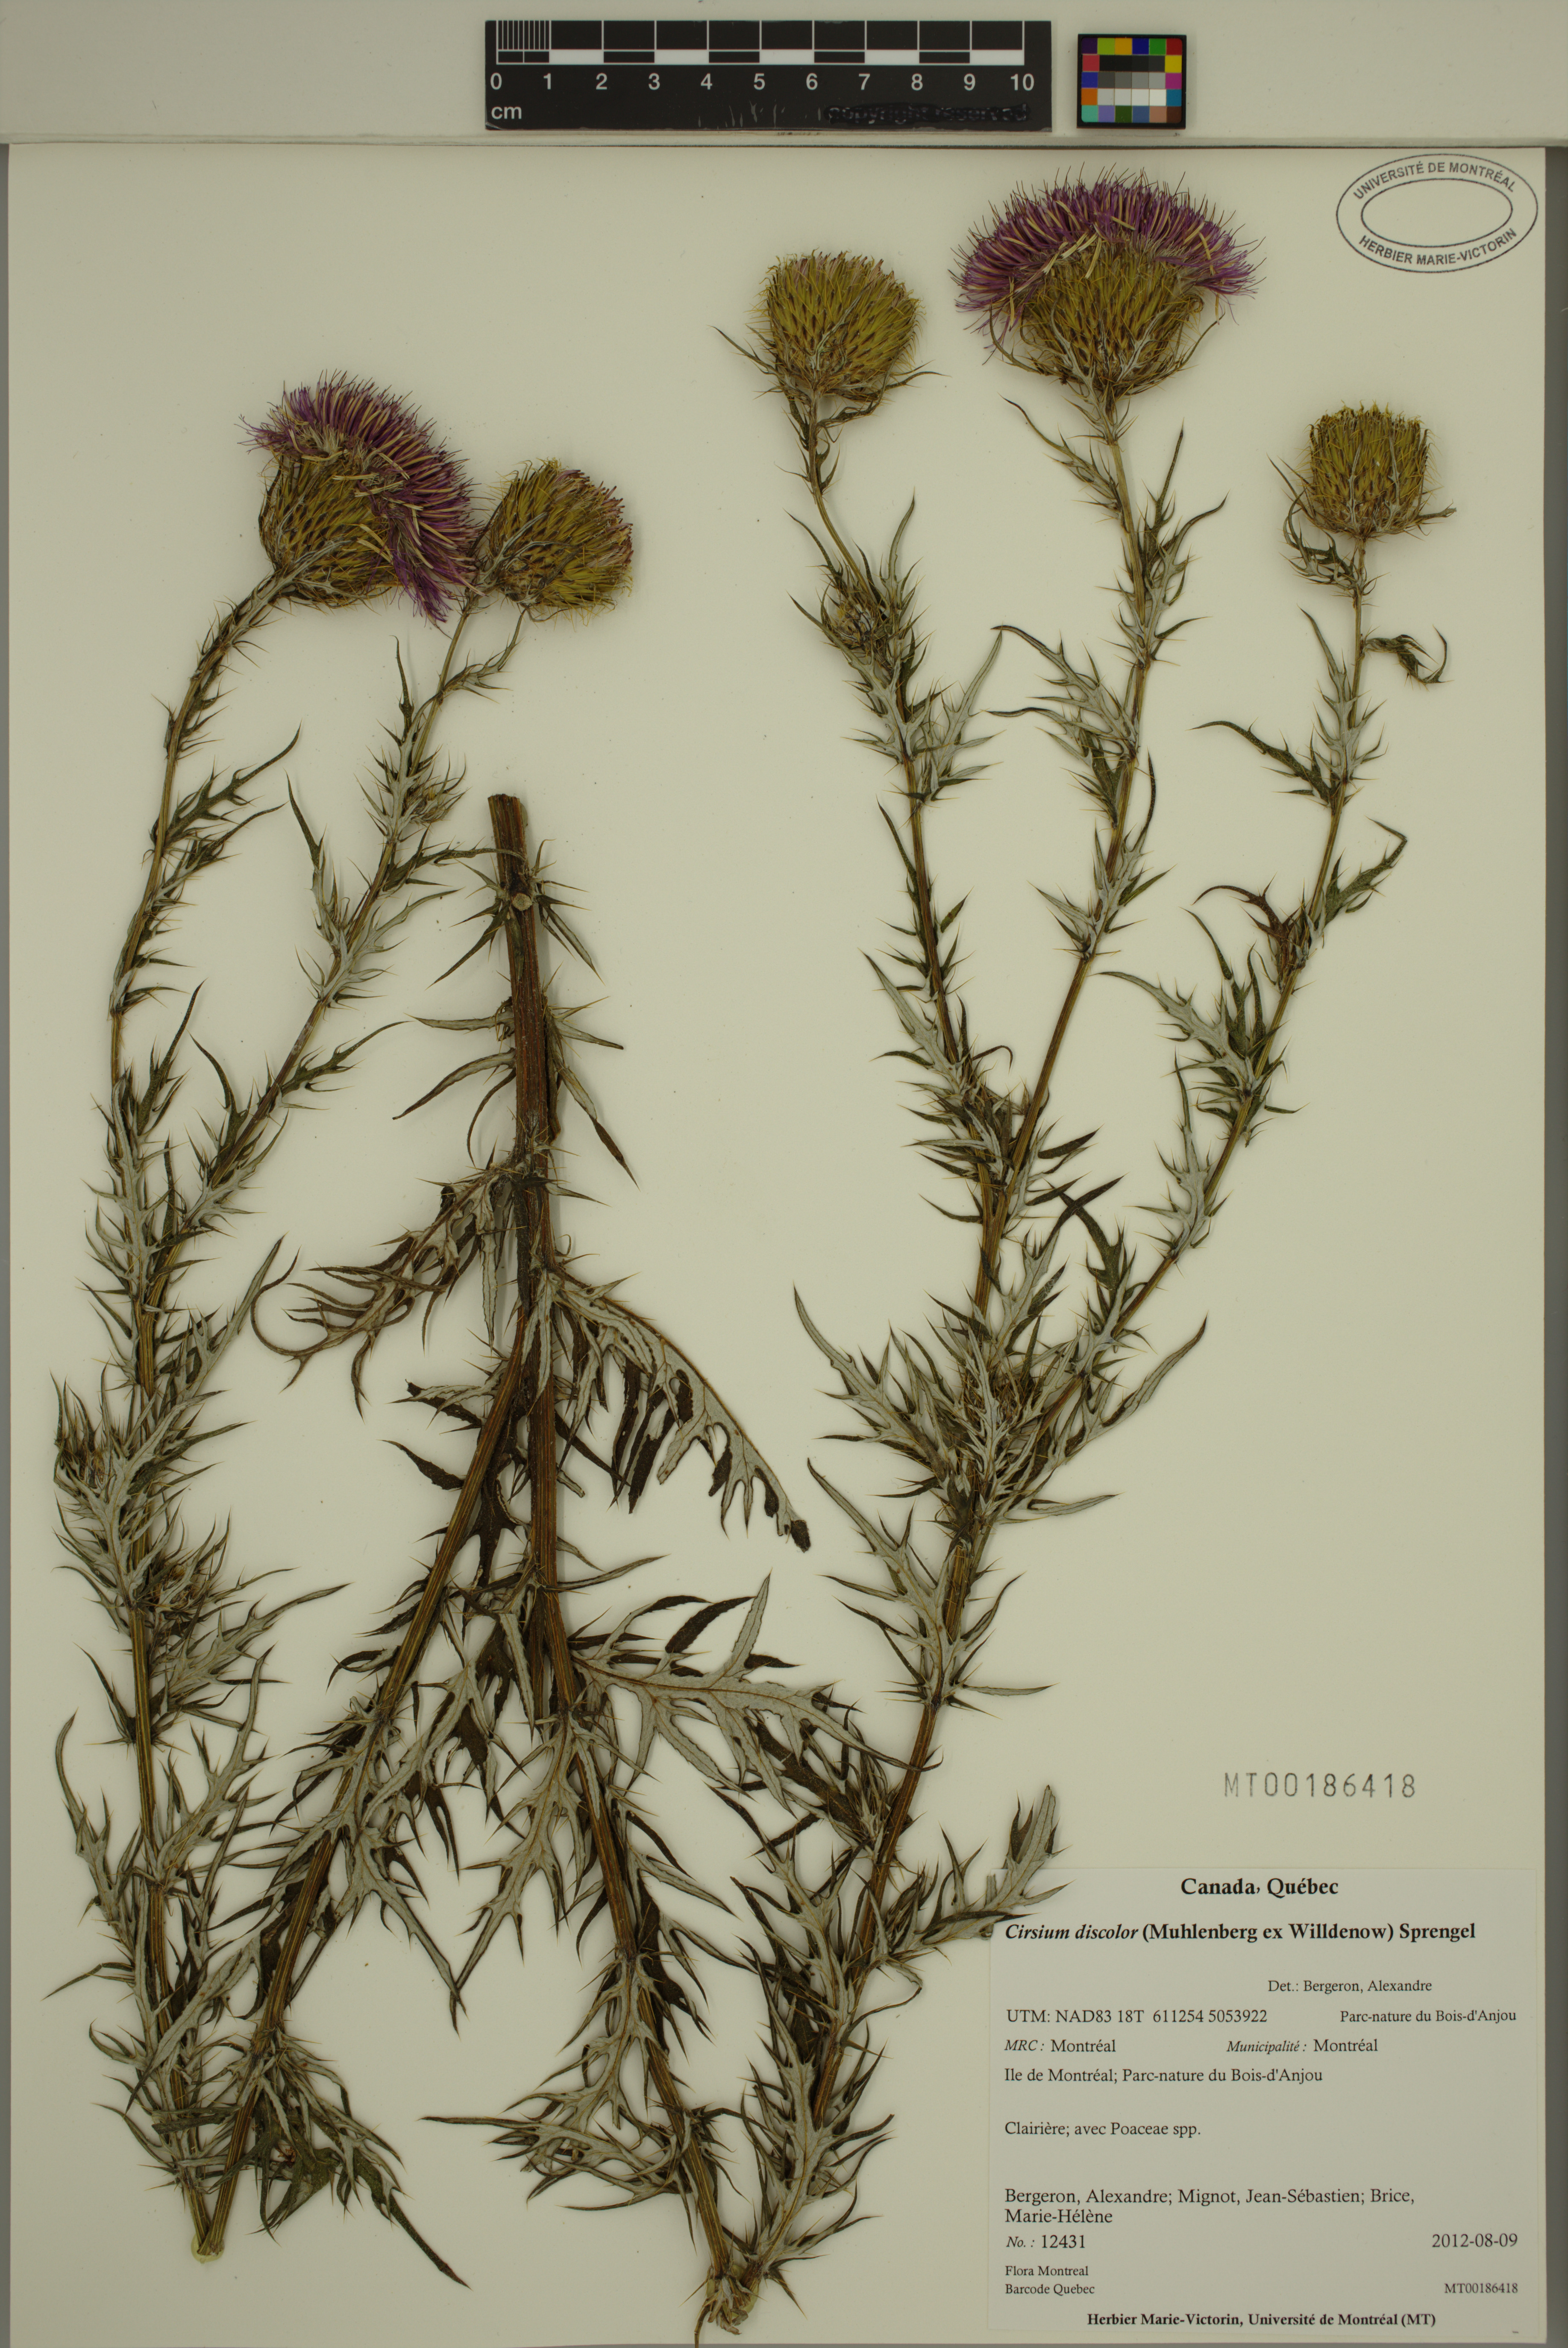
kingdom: Plantae
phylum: Tracheophyta
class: Magnoliopsida
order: Asterales
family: Asteraceae
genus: Cirsium
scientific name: Cirsium discolor
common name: Field thistle
